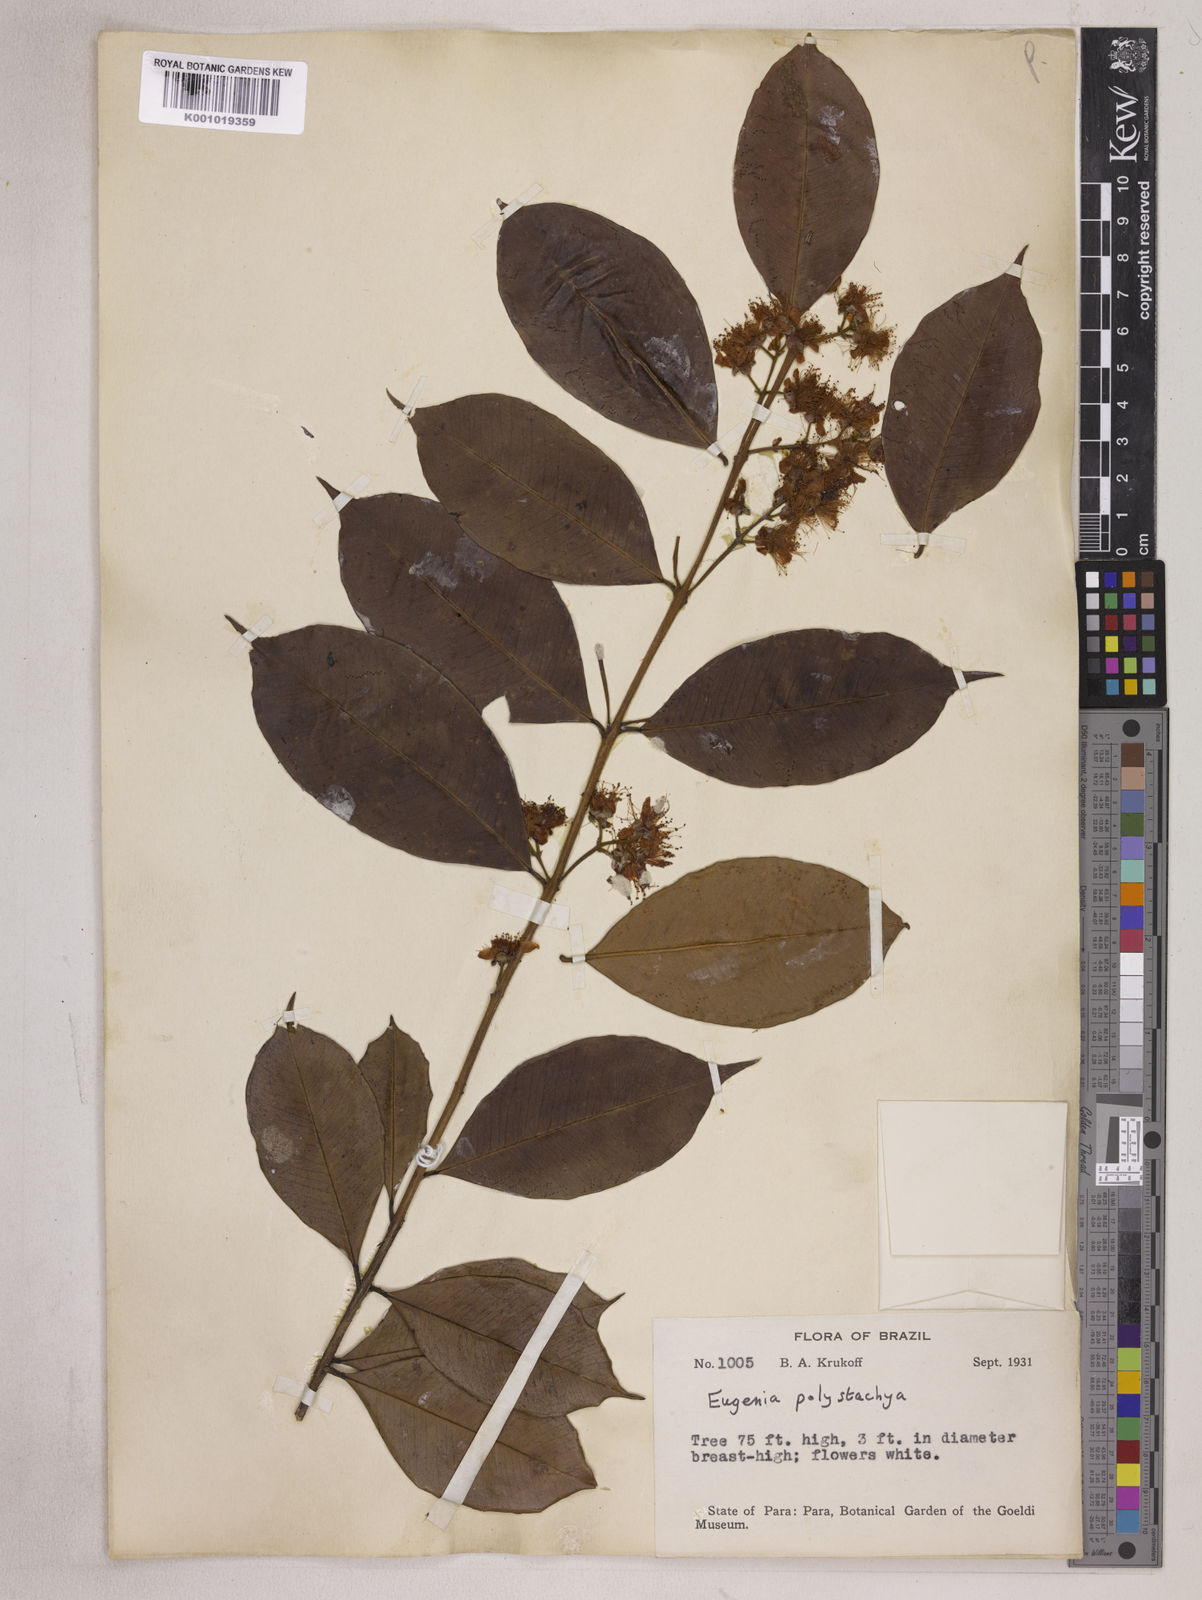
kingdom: Plantae
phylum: Tracheophyta
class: Magnoliopsida
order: Myrtales
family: Myrtaceae
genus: Eugenia
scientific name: Eugenia polystachya
